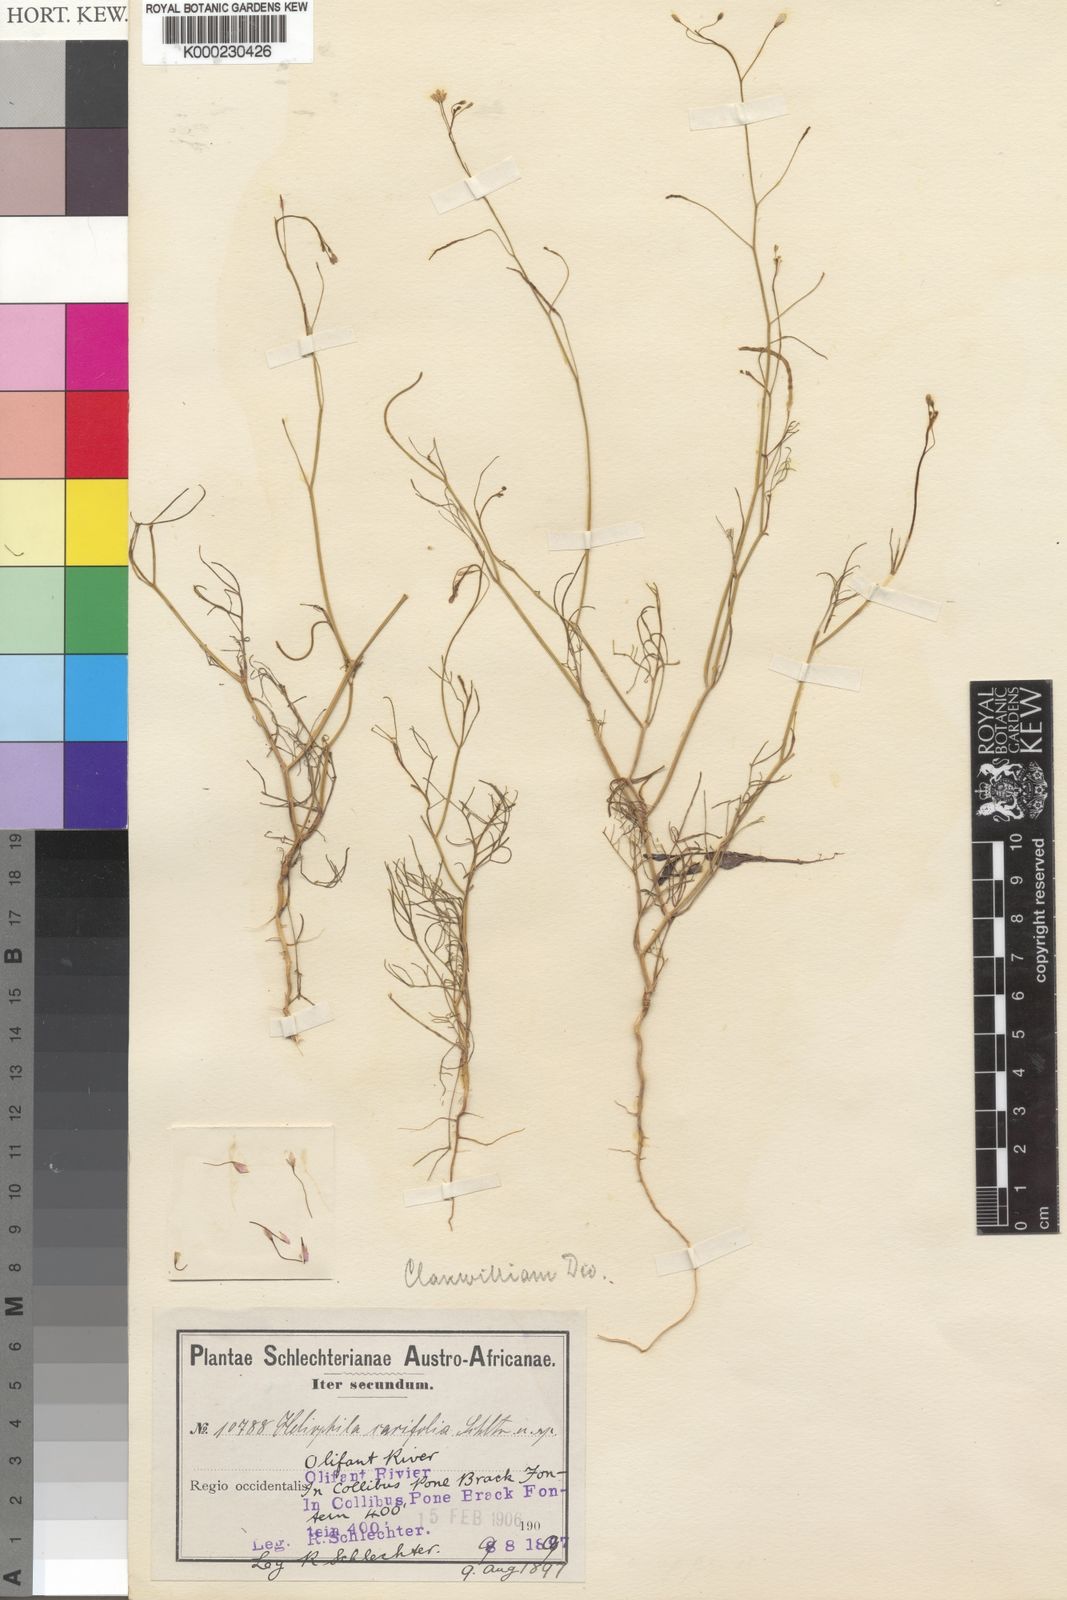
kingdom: Plantae
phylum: Tracheophyta
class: Magnoliopsida
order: Brassicales
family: Brassicaceae
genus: Heliophila
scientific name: Heliophila variabilis
